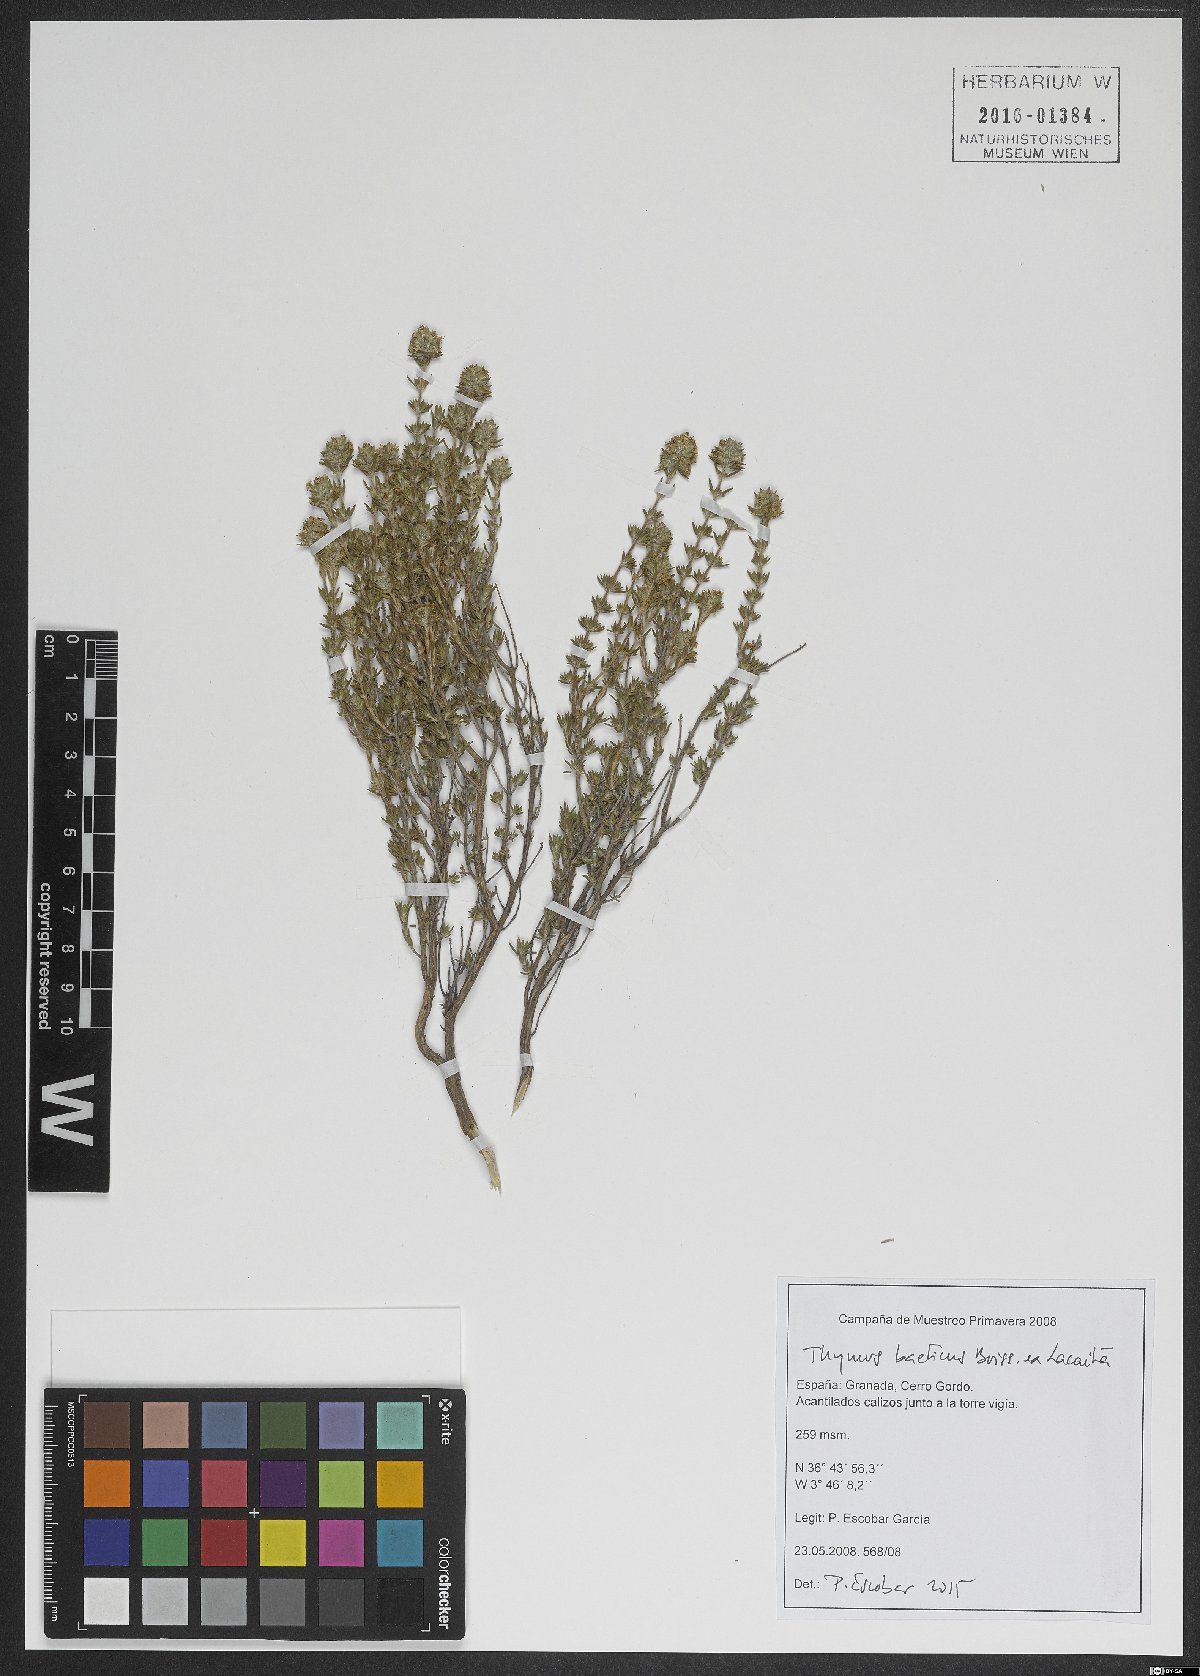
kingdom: Plantae
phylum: Tracheophyta
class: Magnoliopsida
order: Lamiales
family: Lamiaceae
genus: Thymus
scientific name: Thymus baeticus
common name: Spanish lemon thyme
